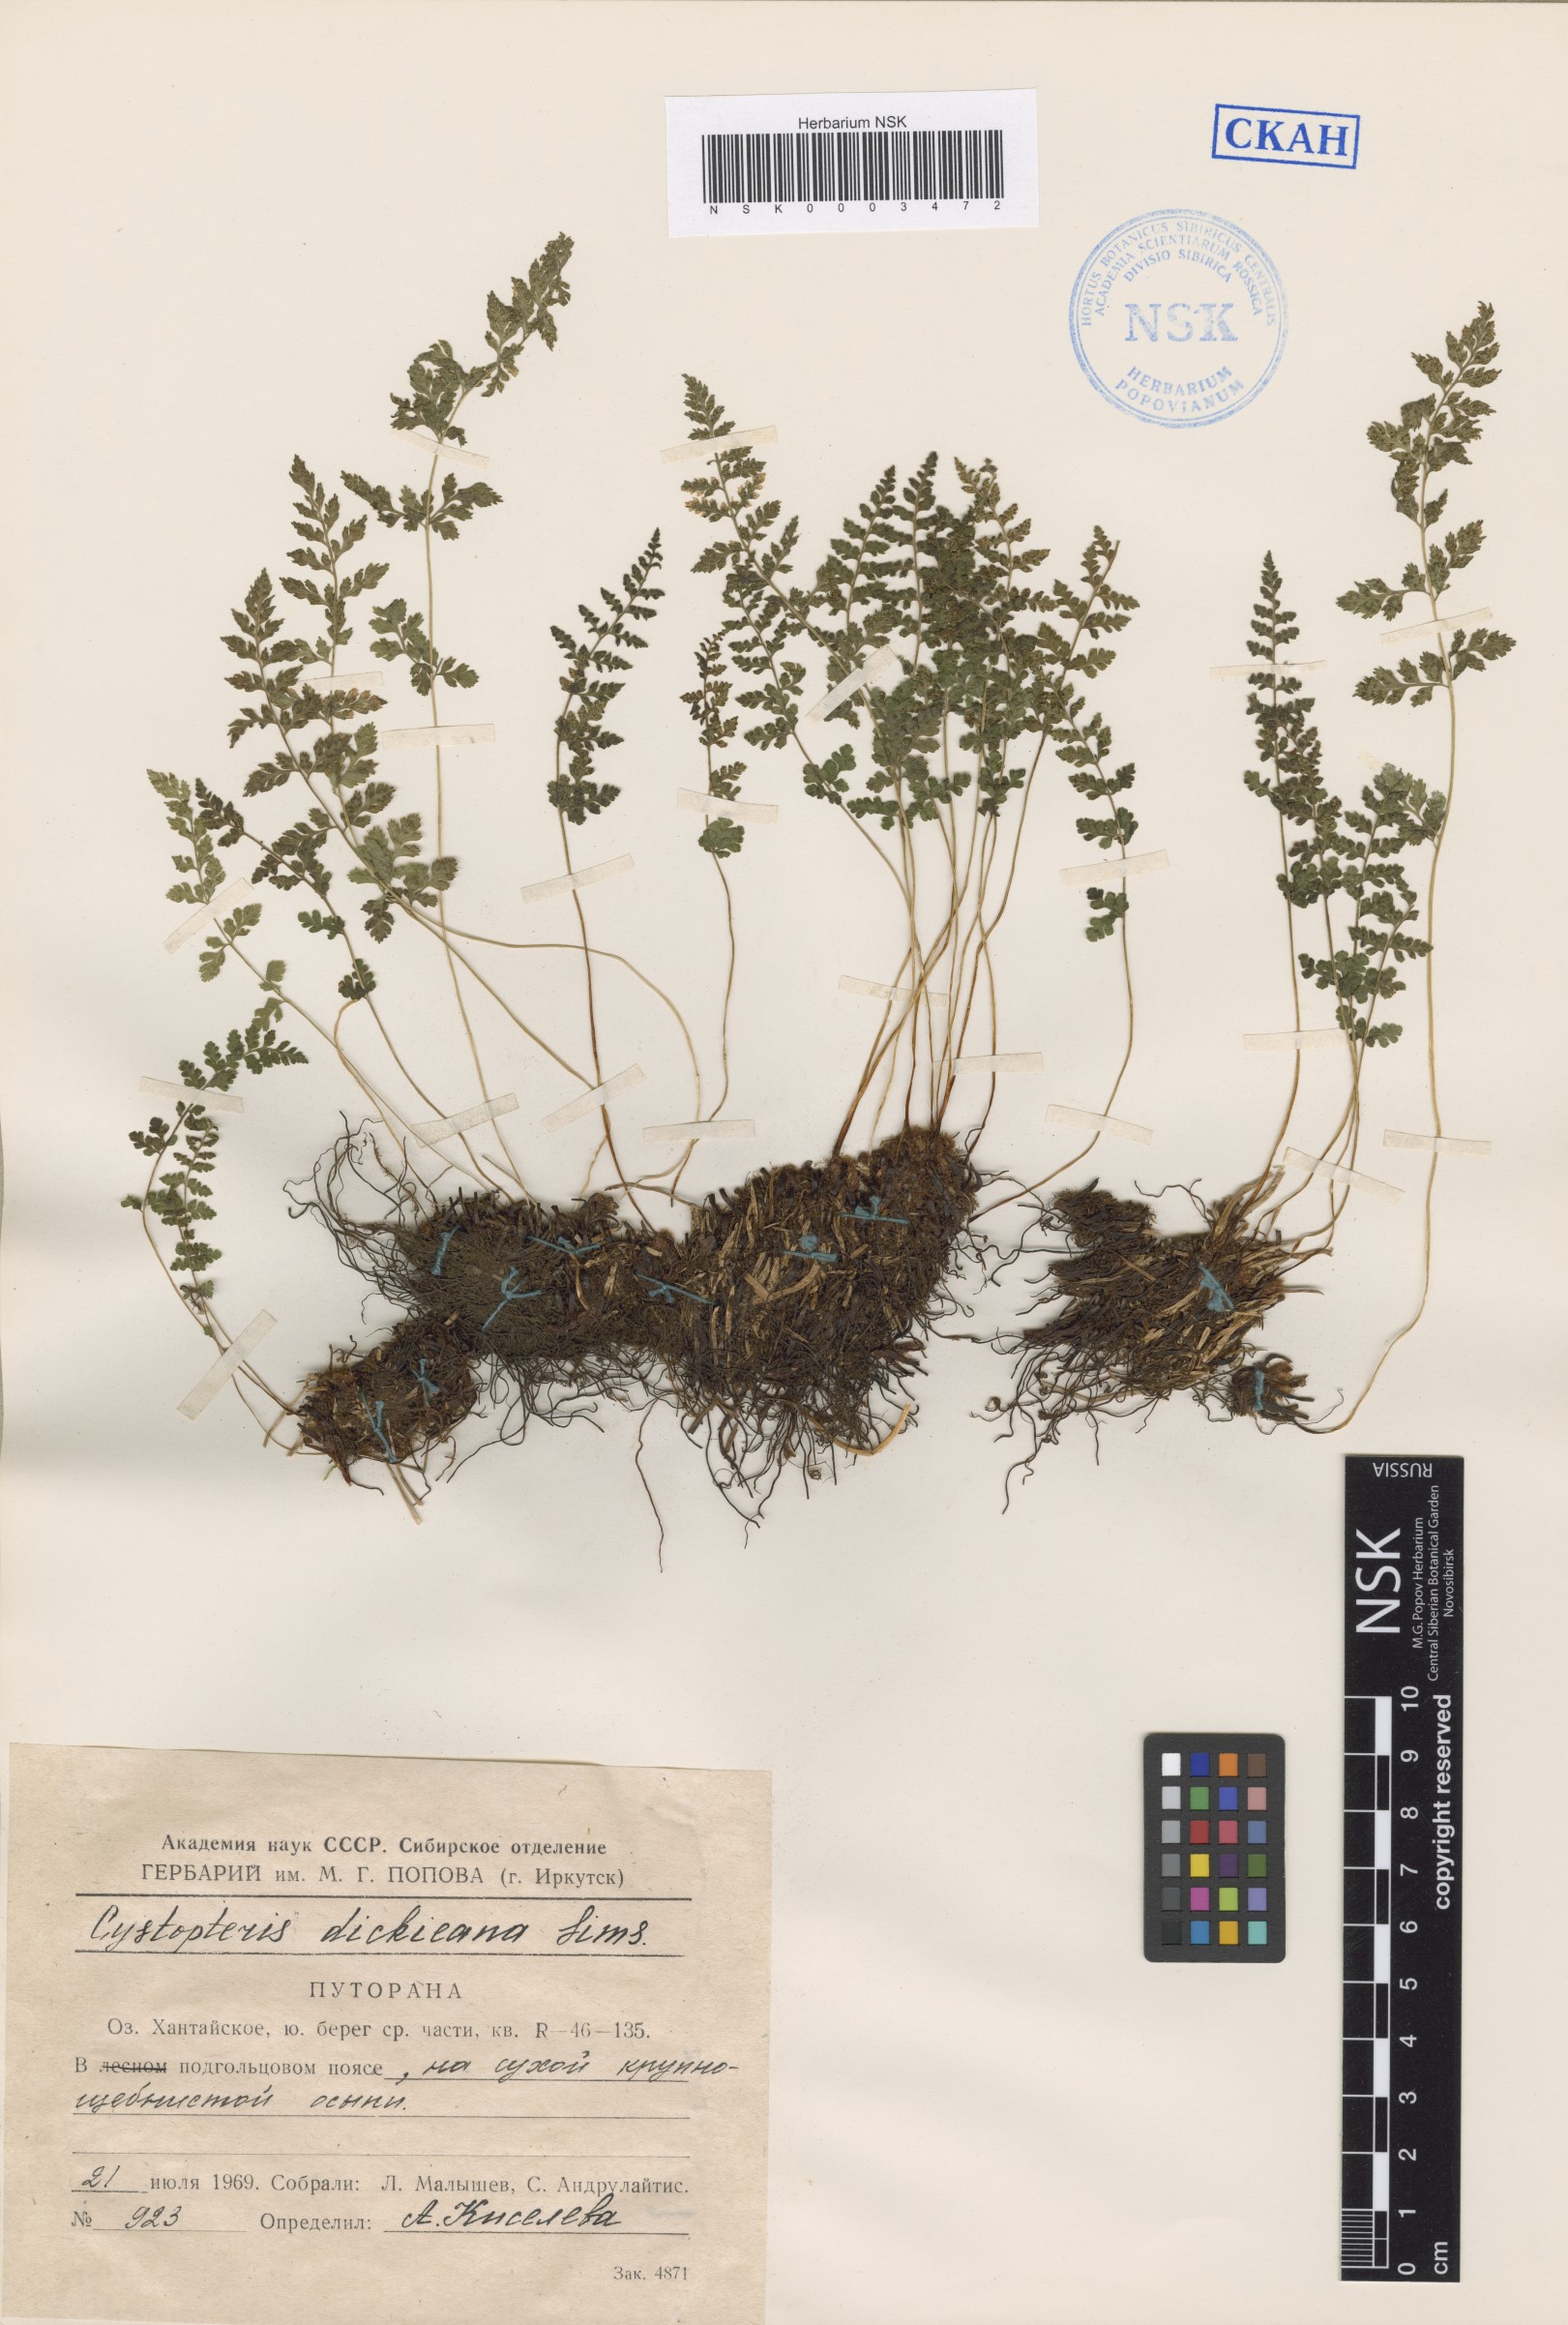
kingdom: Plantae
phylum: Tracheophyta
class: Polypodiopsida
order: Polypodiales
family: Cystopteridaceae
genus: Cystopteris
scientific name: Cystopteris dickieana
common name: Dickie's bladder-fern
